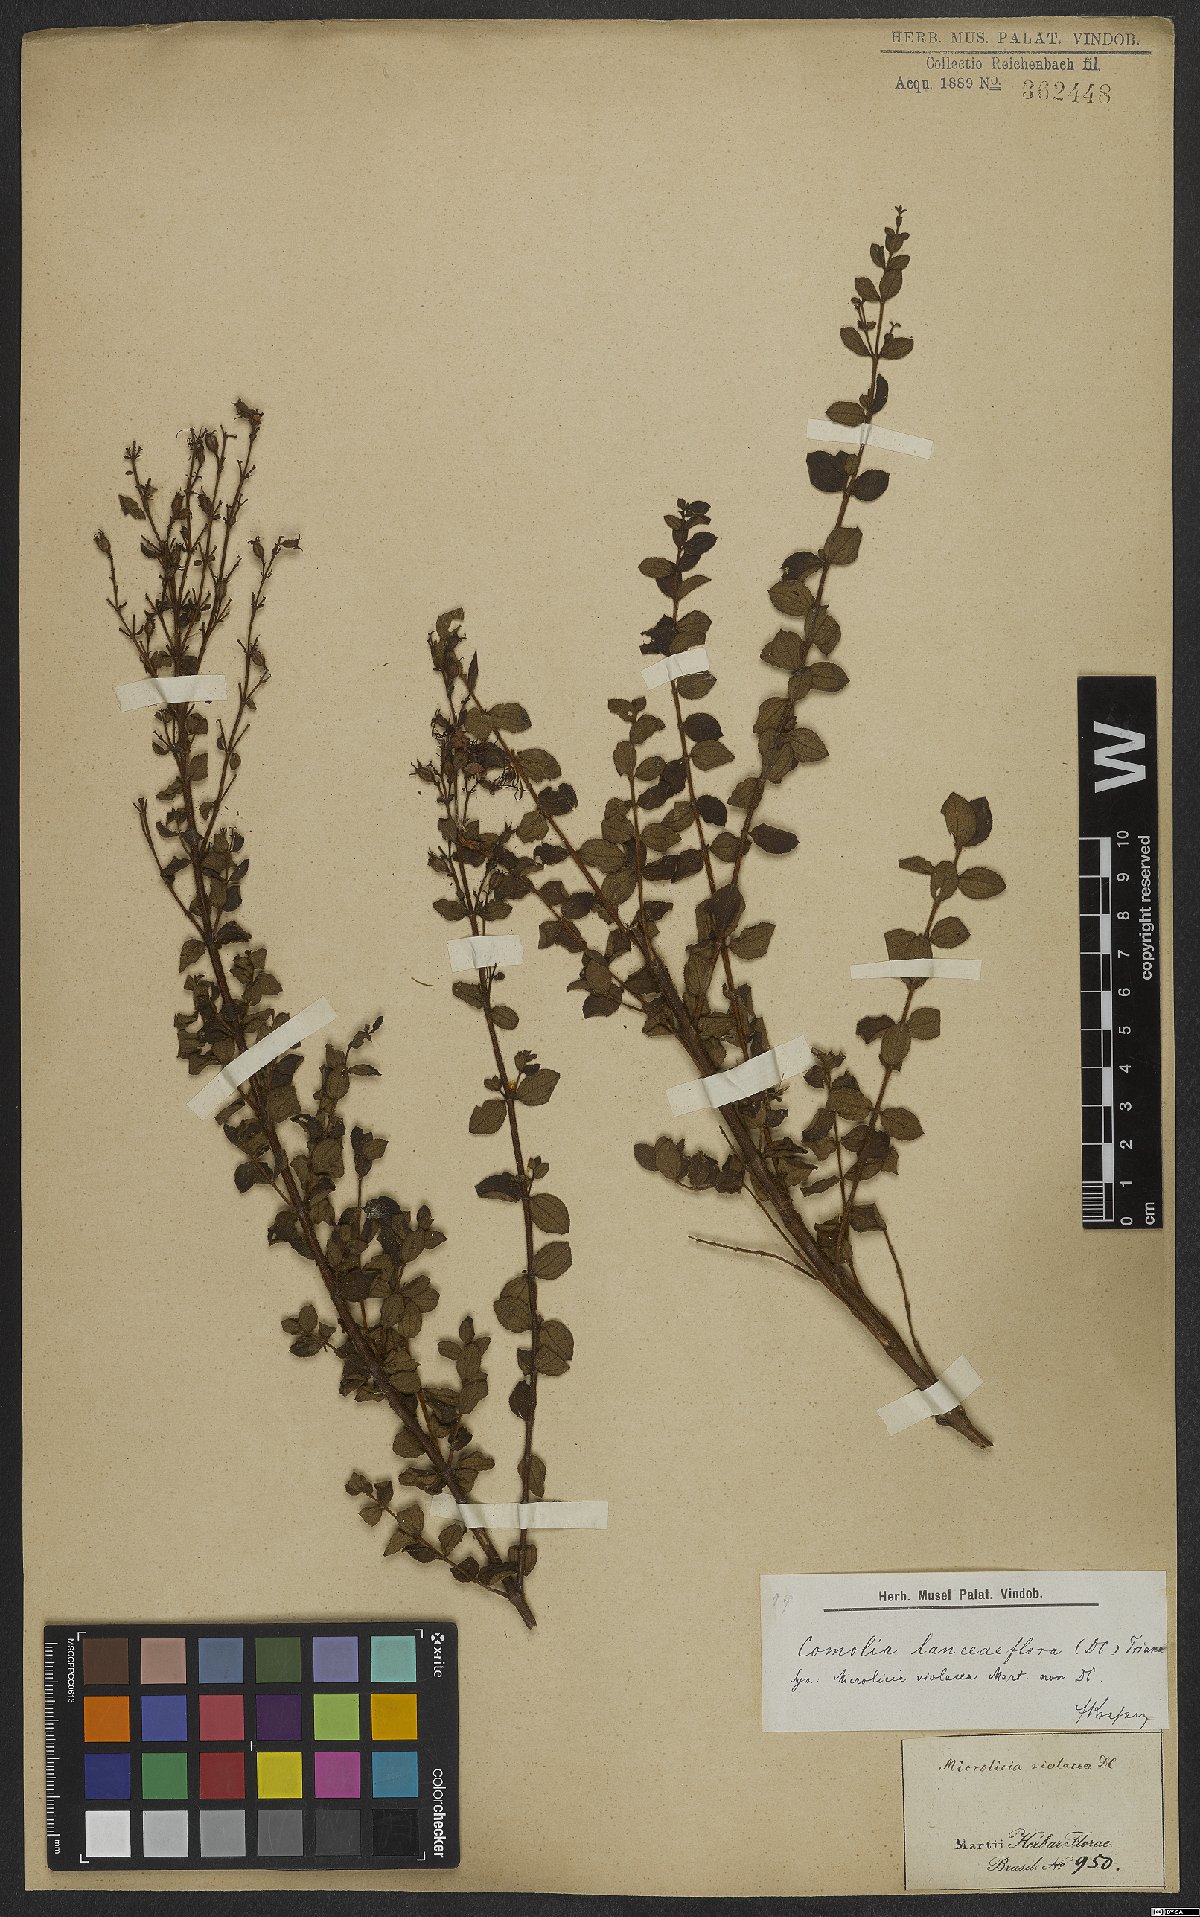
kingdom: Plantae
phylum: Tracheophyta
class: Magnoliopsida
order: Myrtales
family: Melastomataceae
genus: Fritzschia
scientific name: Fritzschia lanceiflora
